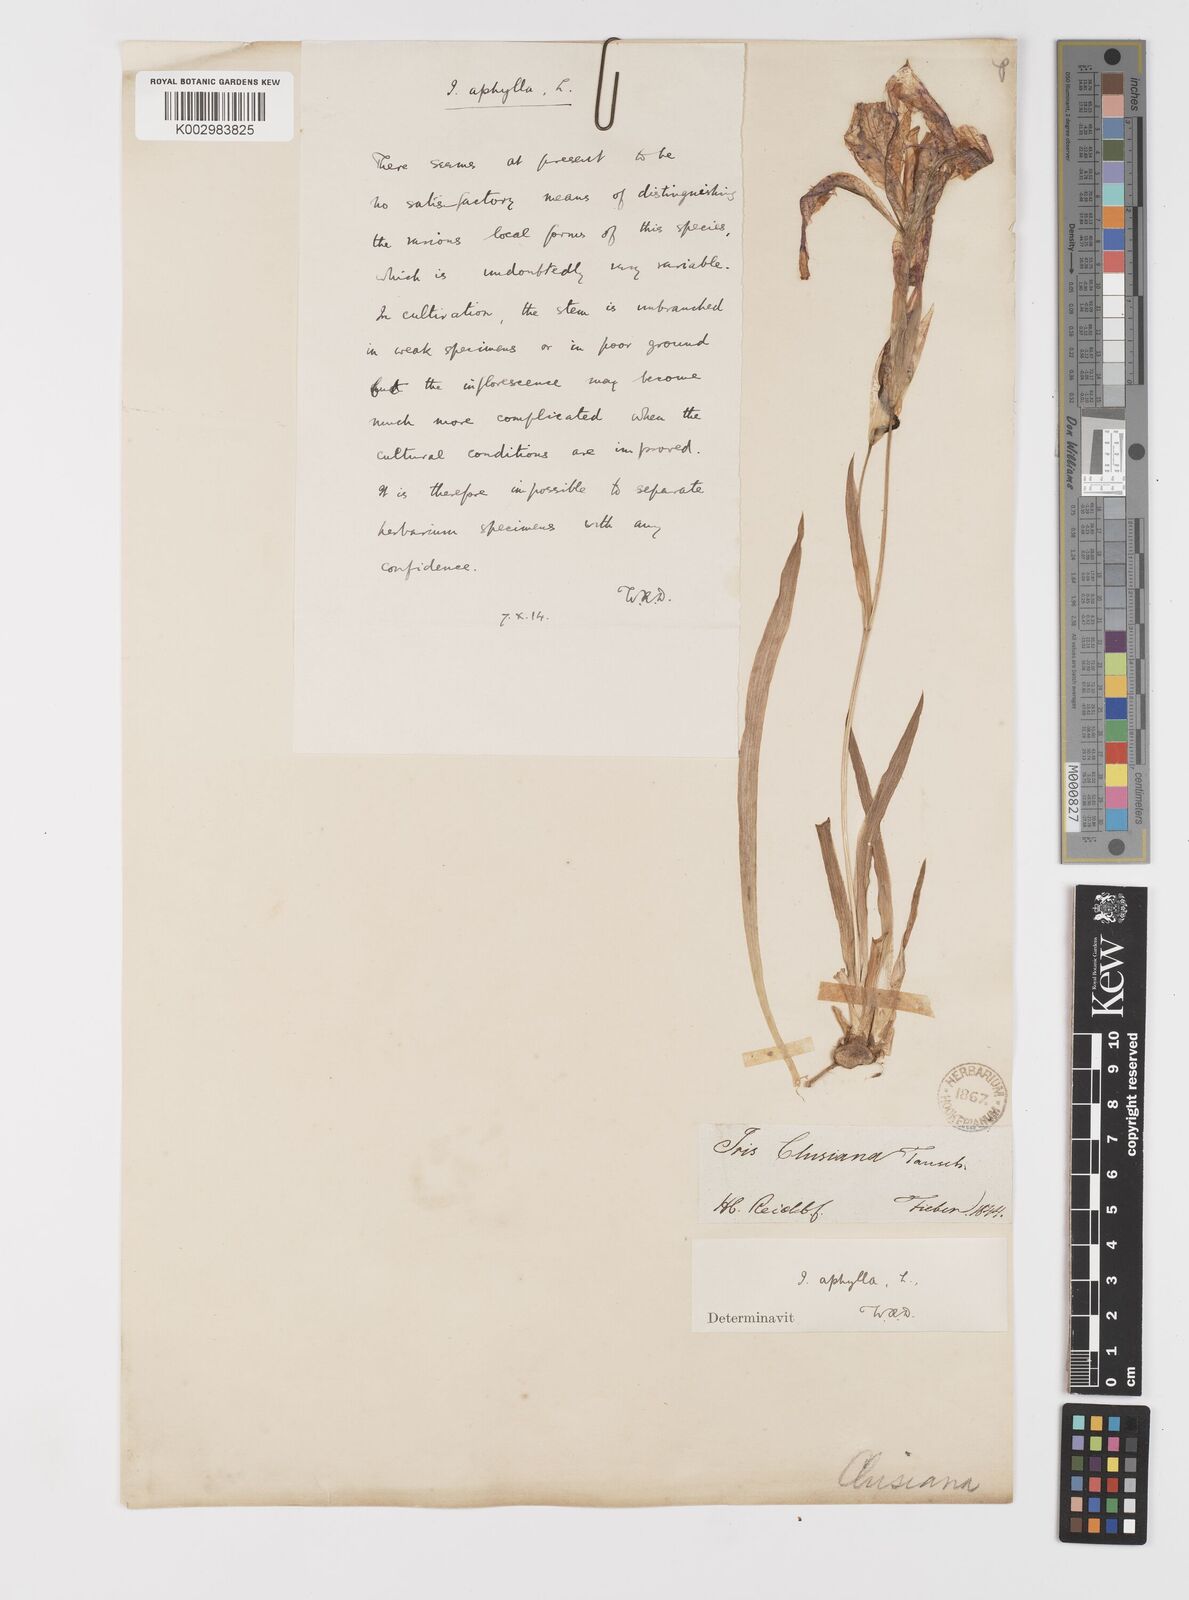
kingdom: Plantae
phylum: Tracheophyta
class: Liliopsida
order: Asparagales
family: Iridaceae
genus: Iris
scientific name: Iris aphylla
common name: Stool iris
